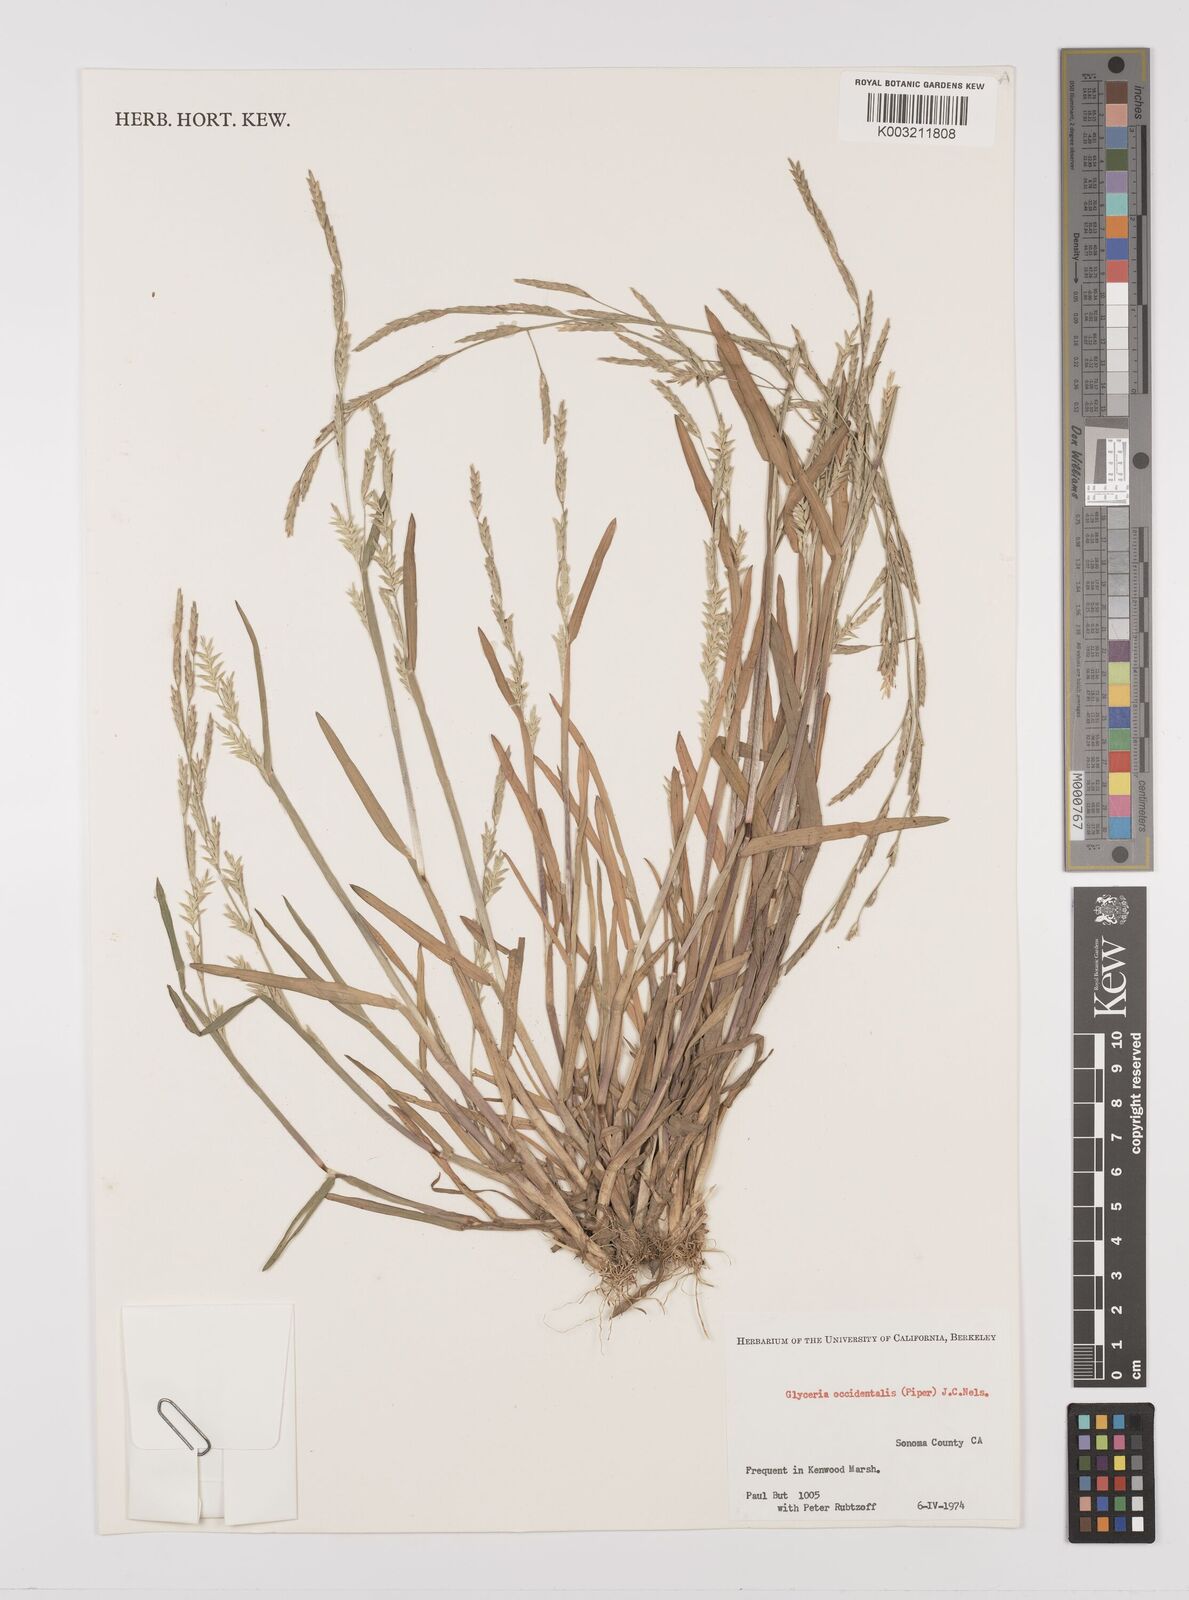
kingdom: Plantae
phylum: Tracheophyta
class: Liliopsida
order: Poales
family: Poaceae
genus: Glyceria
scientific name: Glyceria occidentalis
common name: Western manna grass
